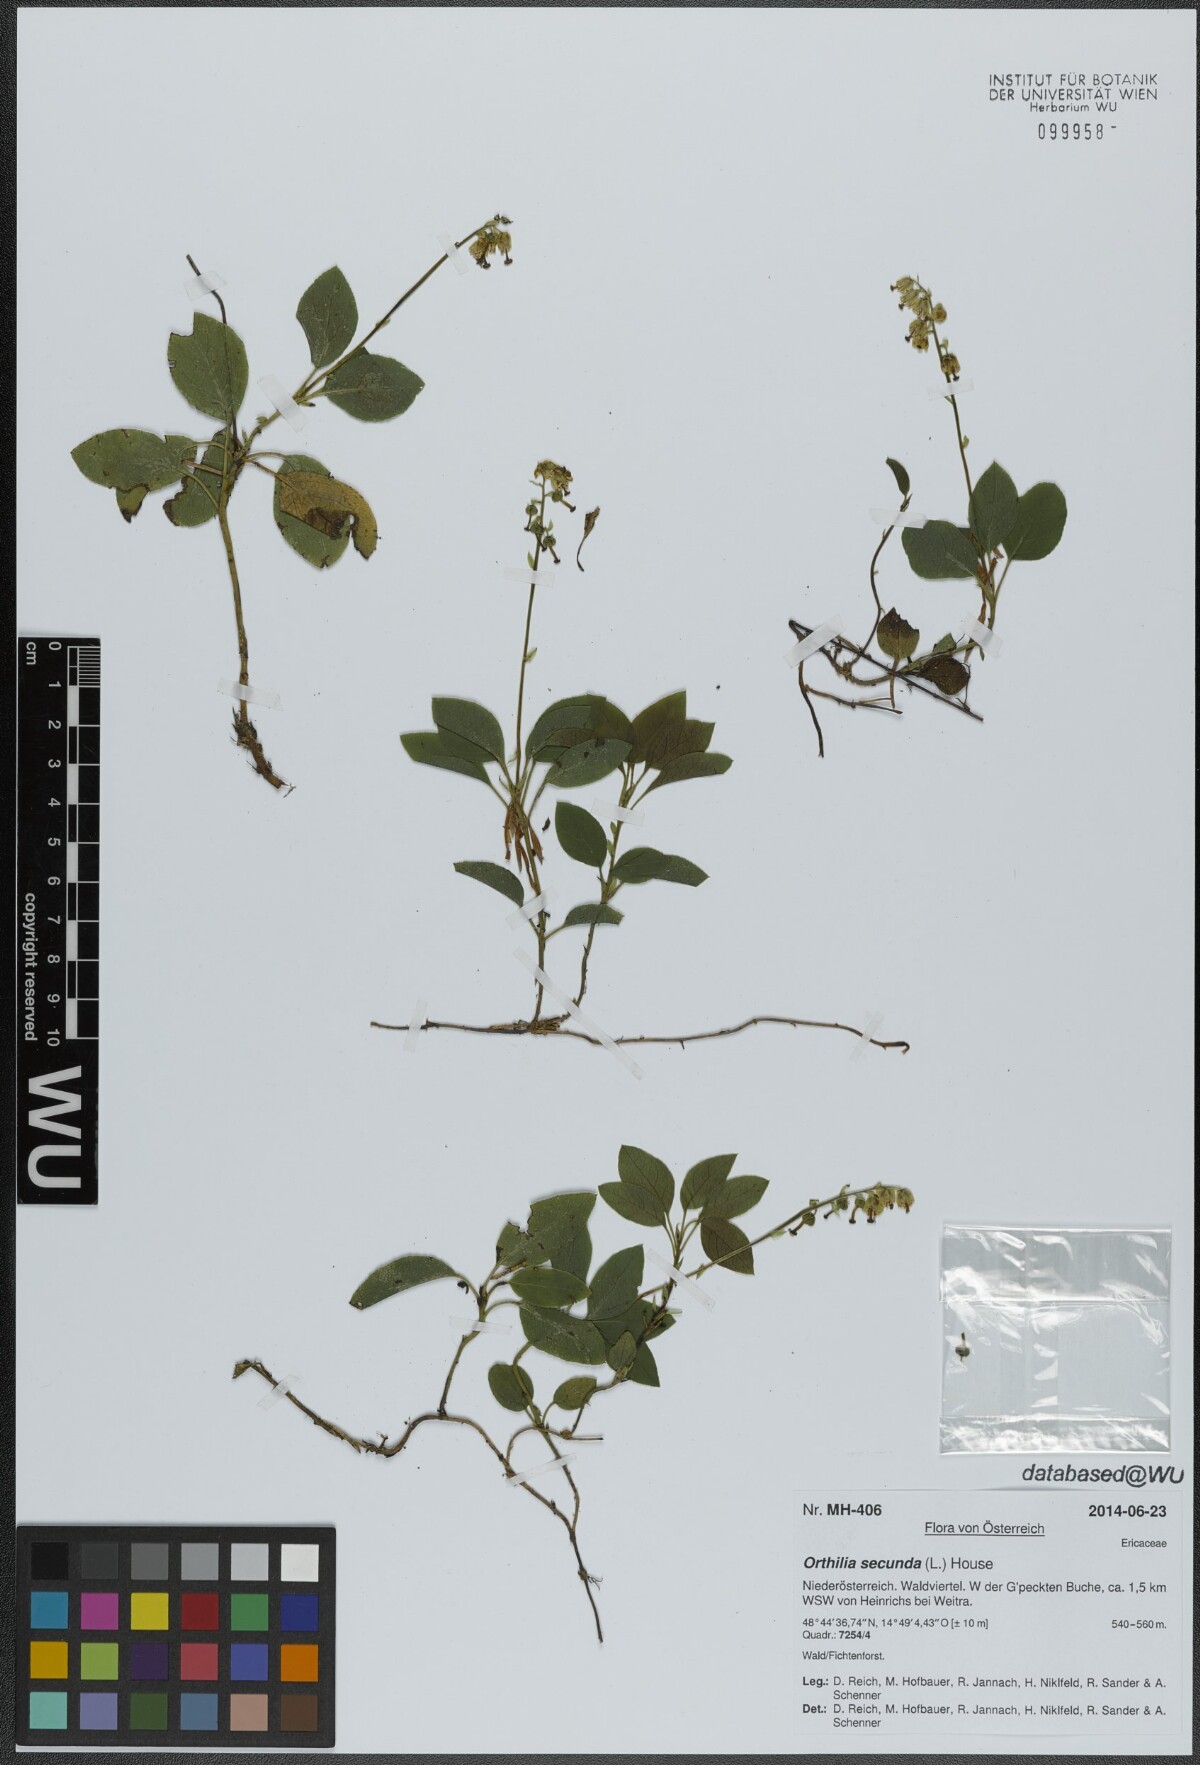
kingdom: Plantae
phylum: Tracheophyta
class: Magnoliopsida
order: Ericales
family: Ericaceae
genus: Orthilia
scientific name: Orthilia secunda
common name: One-sided orthilia
